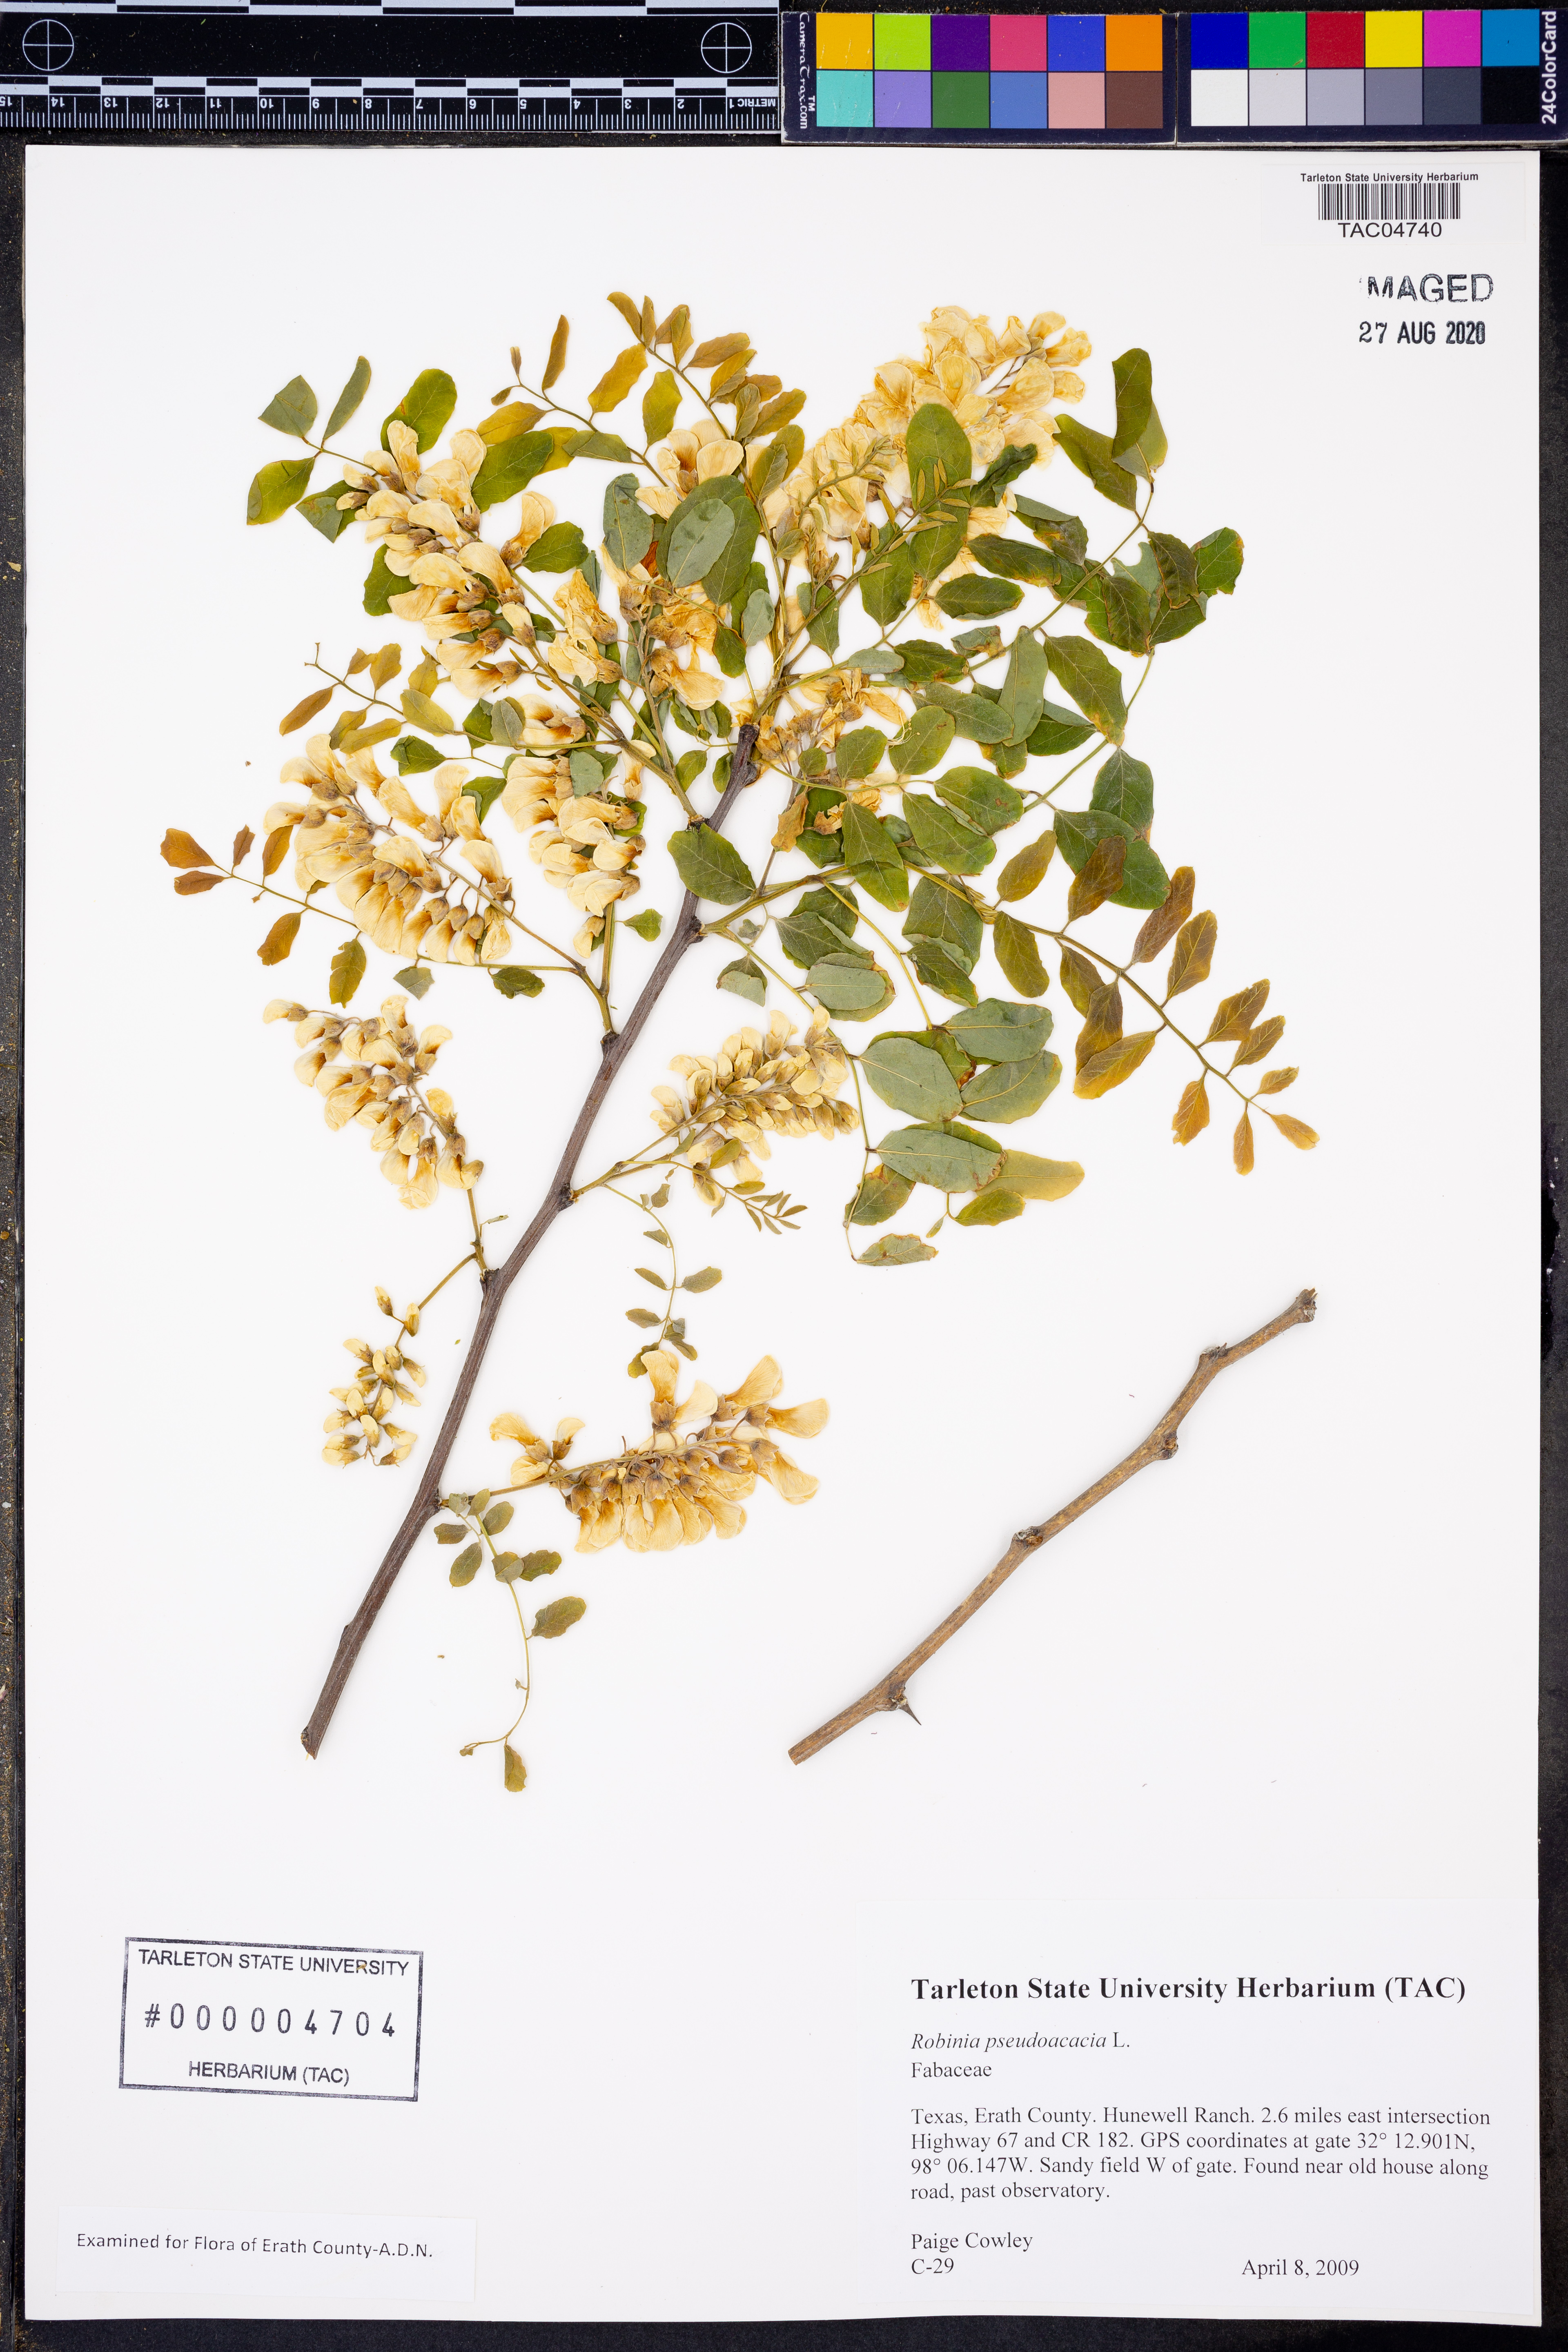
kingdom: Plantae
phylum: Tracheophyta
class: Magnoliopsida
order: Fabales
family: Fabaceae
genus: Robinia
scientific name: Robinia pseudoacacia
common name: Black locust
